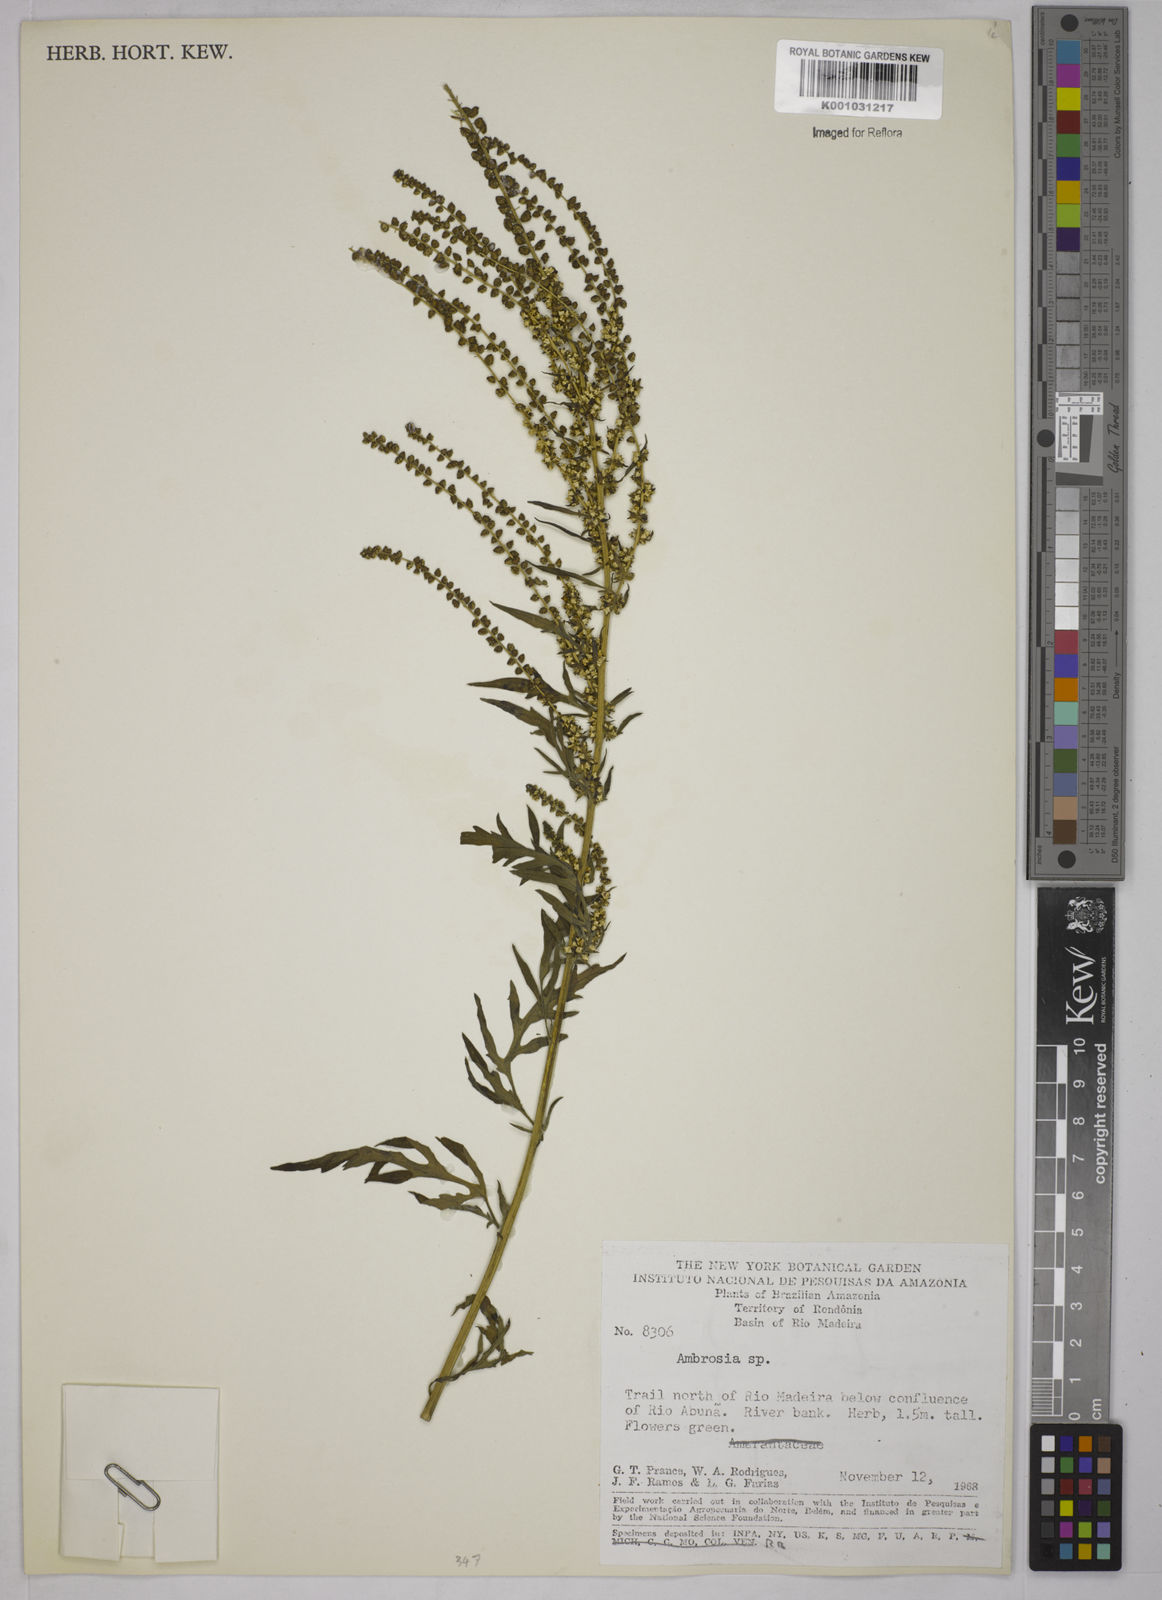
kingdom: Plantae
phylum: Tracheophyta
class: Magnoliopsida
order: Asterales
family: Asteraceae
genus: Ambrosia
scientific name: Ambrosia
